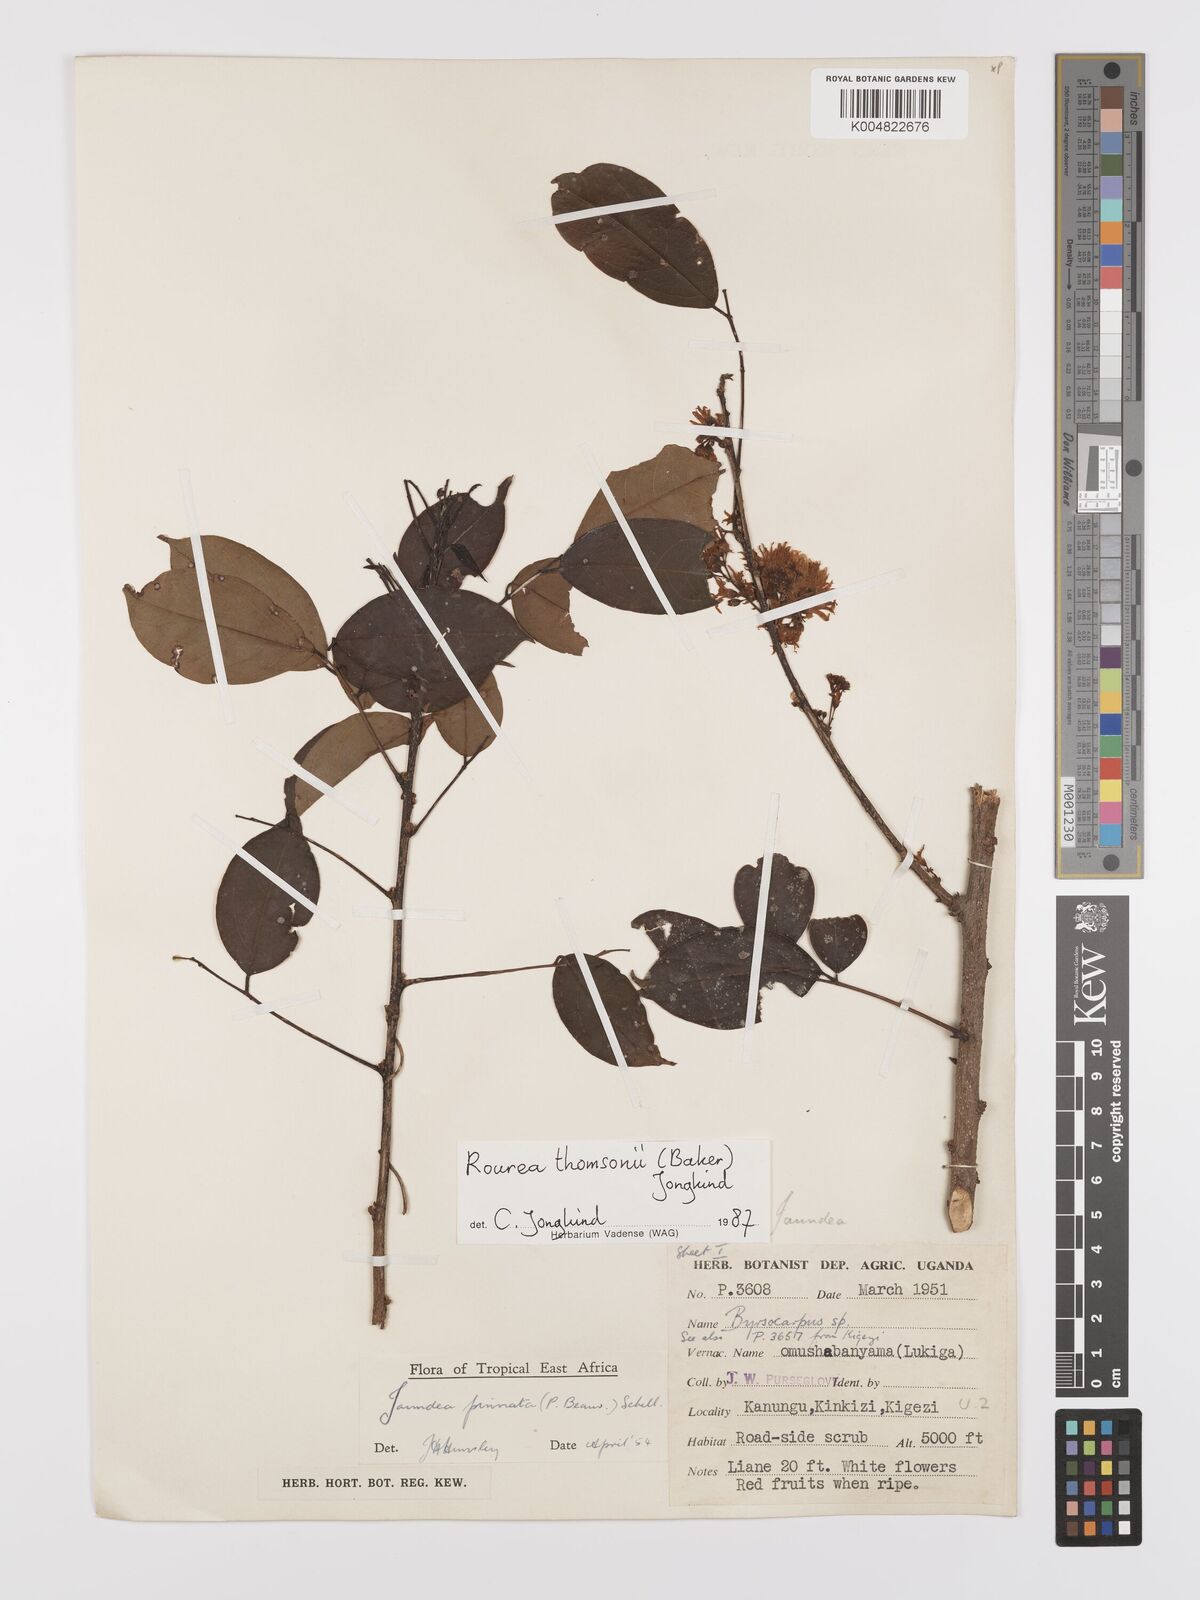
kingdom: Plantae
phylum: Tracheophyta
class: Magnoliopsida
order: Oxalidales
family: Connaraceae
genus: Rourea
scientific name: Rourea pinnata
